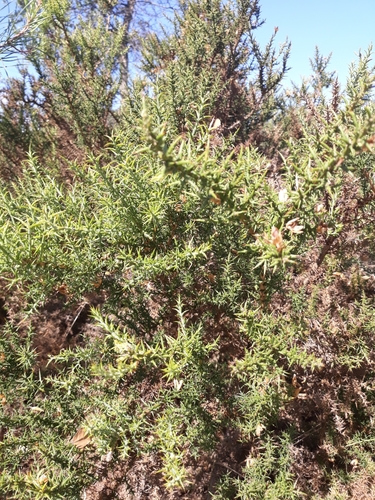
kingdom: Plantae
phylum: Tracheophyta
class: Magnoliopsida
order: Fabales
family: Fabaceae
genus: Stauracanthus
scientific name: Stauracanthus genistoides
